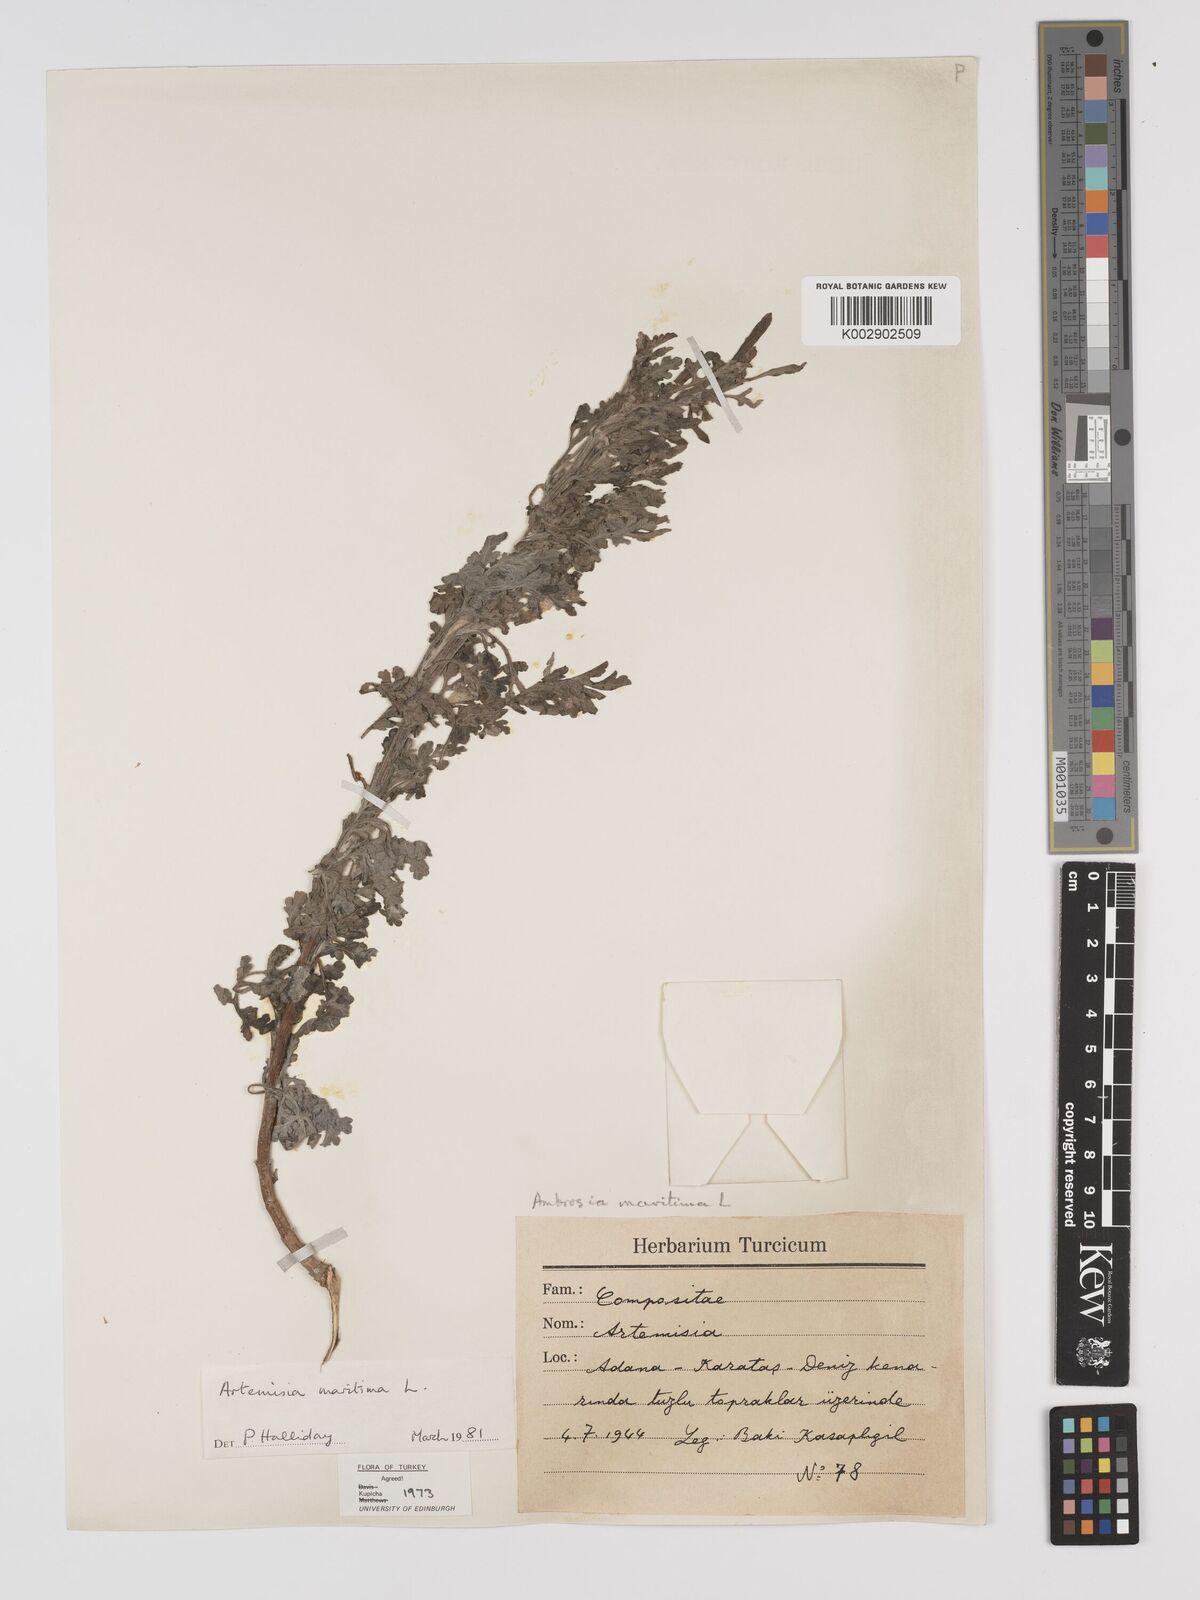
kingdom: Plantae
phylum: Tracheophyta
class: Magnoliopsida
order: Asterales
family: Asteraceae
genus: Ambrosia
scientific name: Ambrosia maritima
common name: Sea ambrosia
